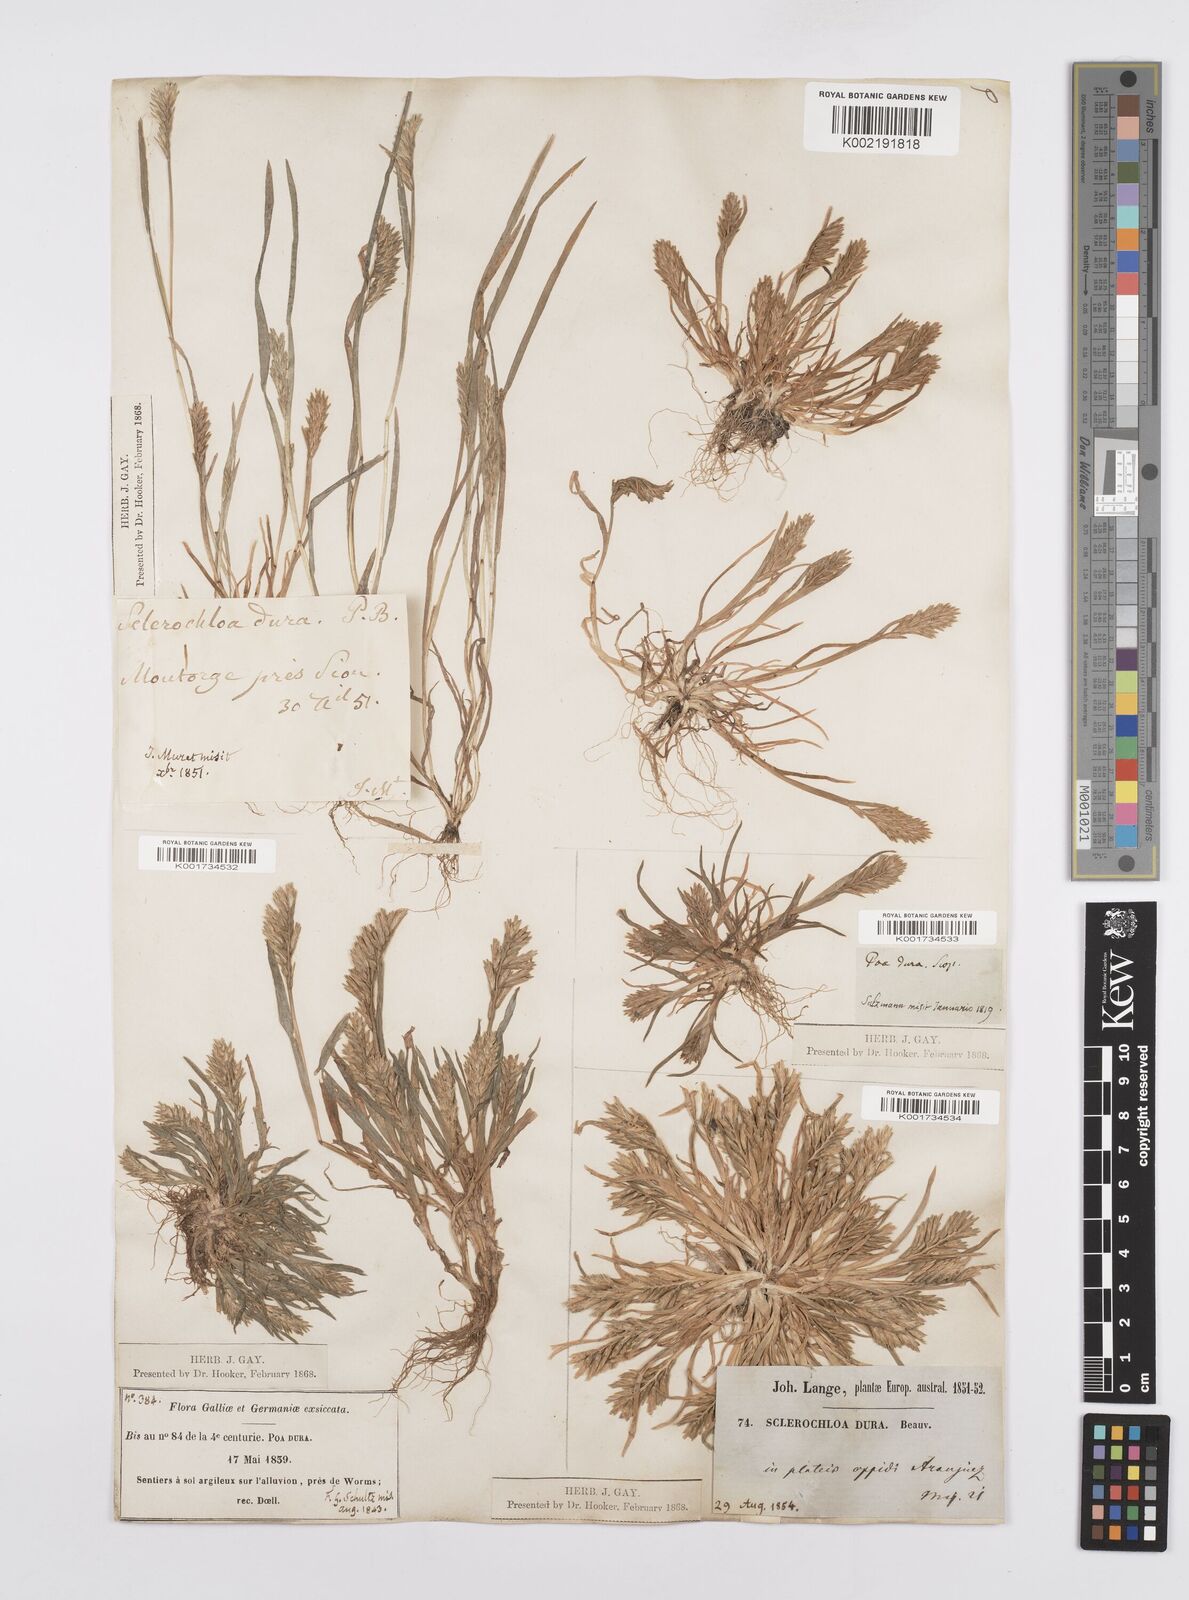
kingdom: Plantae
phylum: Tracheophyta
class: Liliopsida
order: Poales
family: Poaceae
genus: Sclerochloa
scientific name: Sclerochloa dura
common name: Common hardgrass
